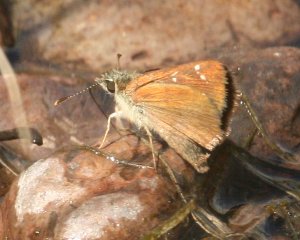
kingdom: Animalia
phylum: Arthropoda
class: Insecta
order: Lepidoptera
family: Hesperiidae
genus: Piruna
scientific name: Piruna pirus
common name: Russet Skipperling
